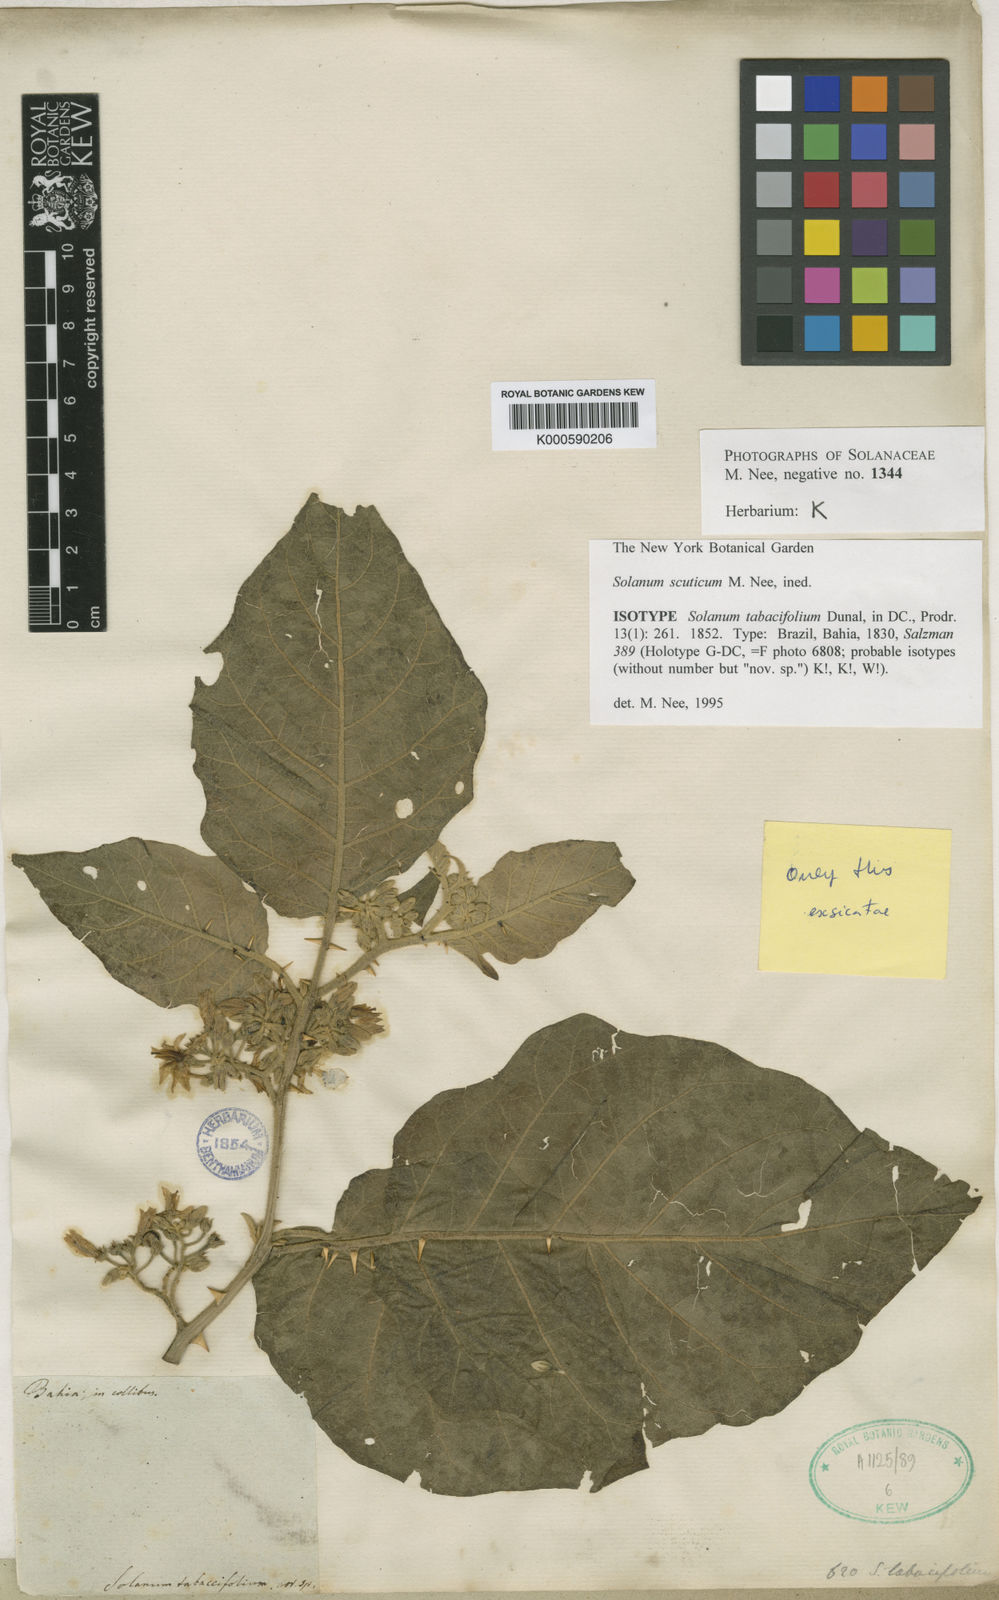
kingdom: Plantae
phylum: Tracheophyta
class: Magnoliopsida
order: Solanales
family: Solanaceae
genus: Solanum
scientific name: Solanum scuticum
